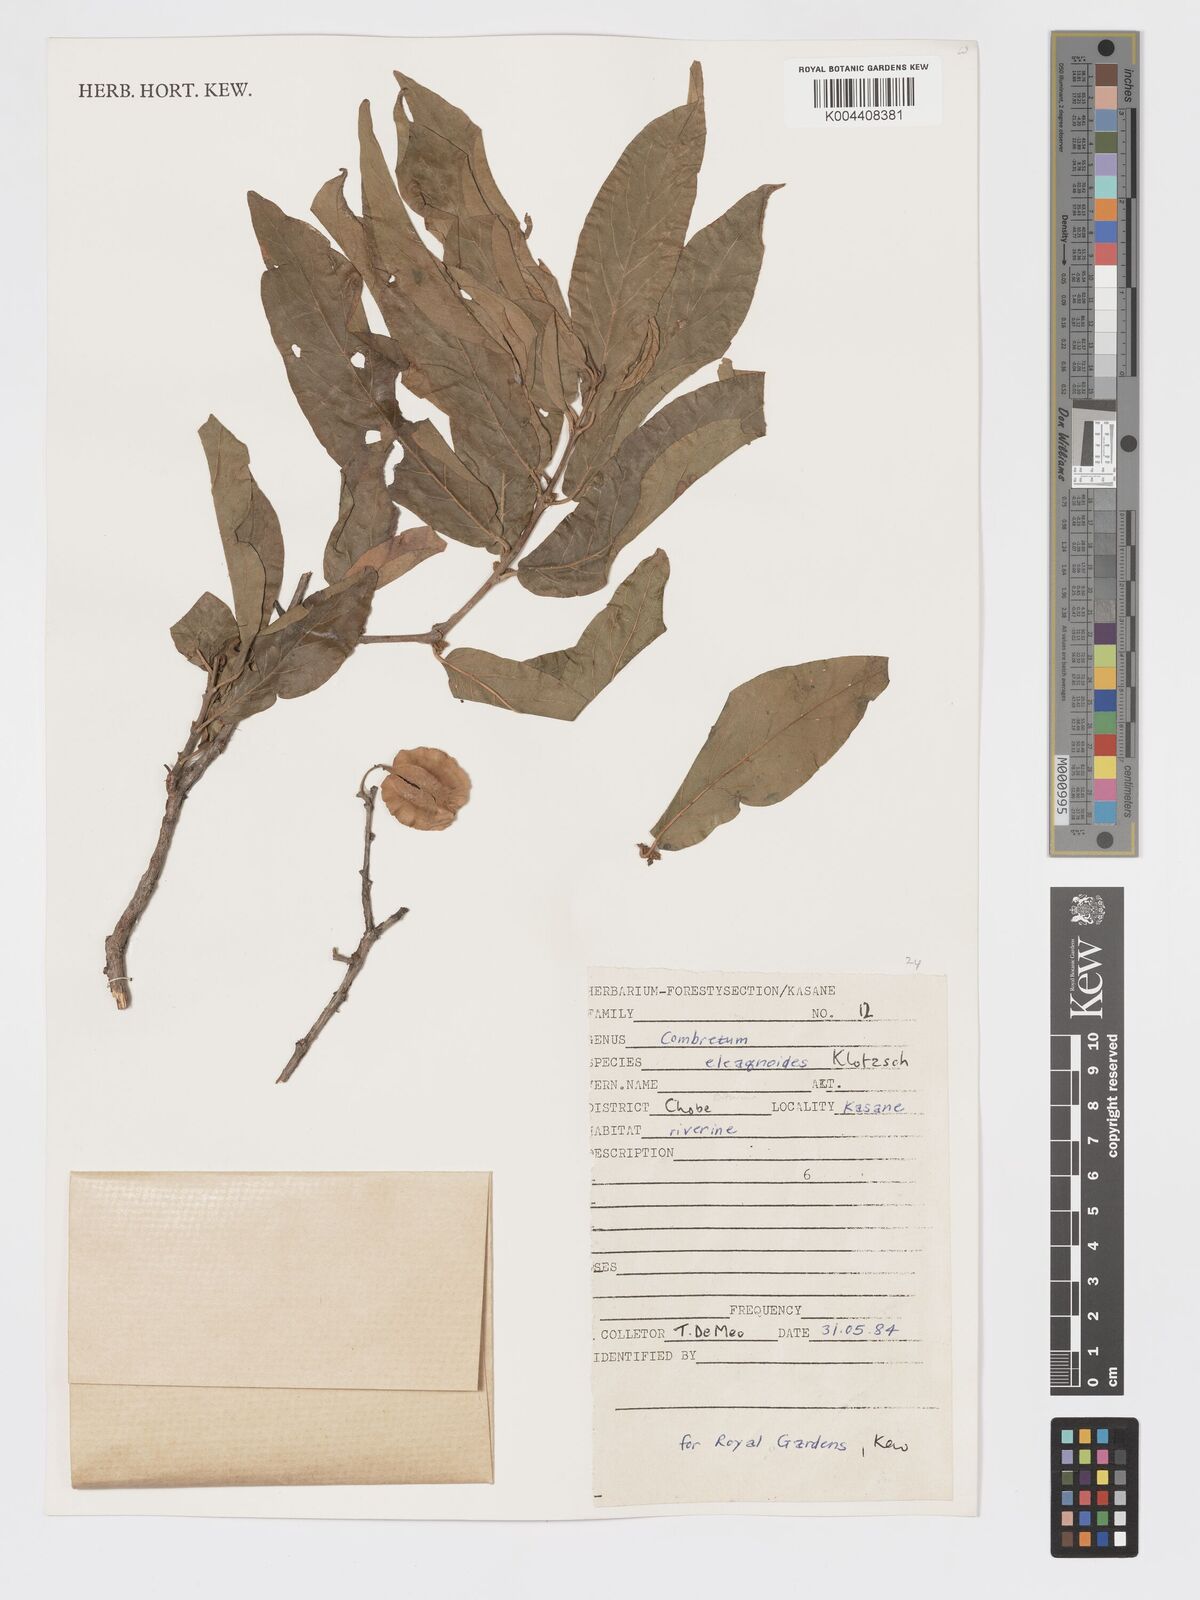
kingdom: Plantae
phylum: Tracheophyta
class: Magnoliopsida
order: Myrtales
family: Combretaceae
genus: Combretum
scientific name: Combretum elaeagnoides
